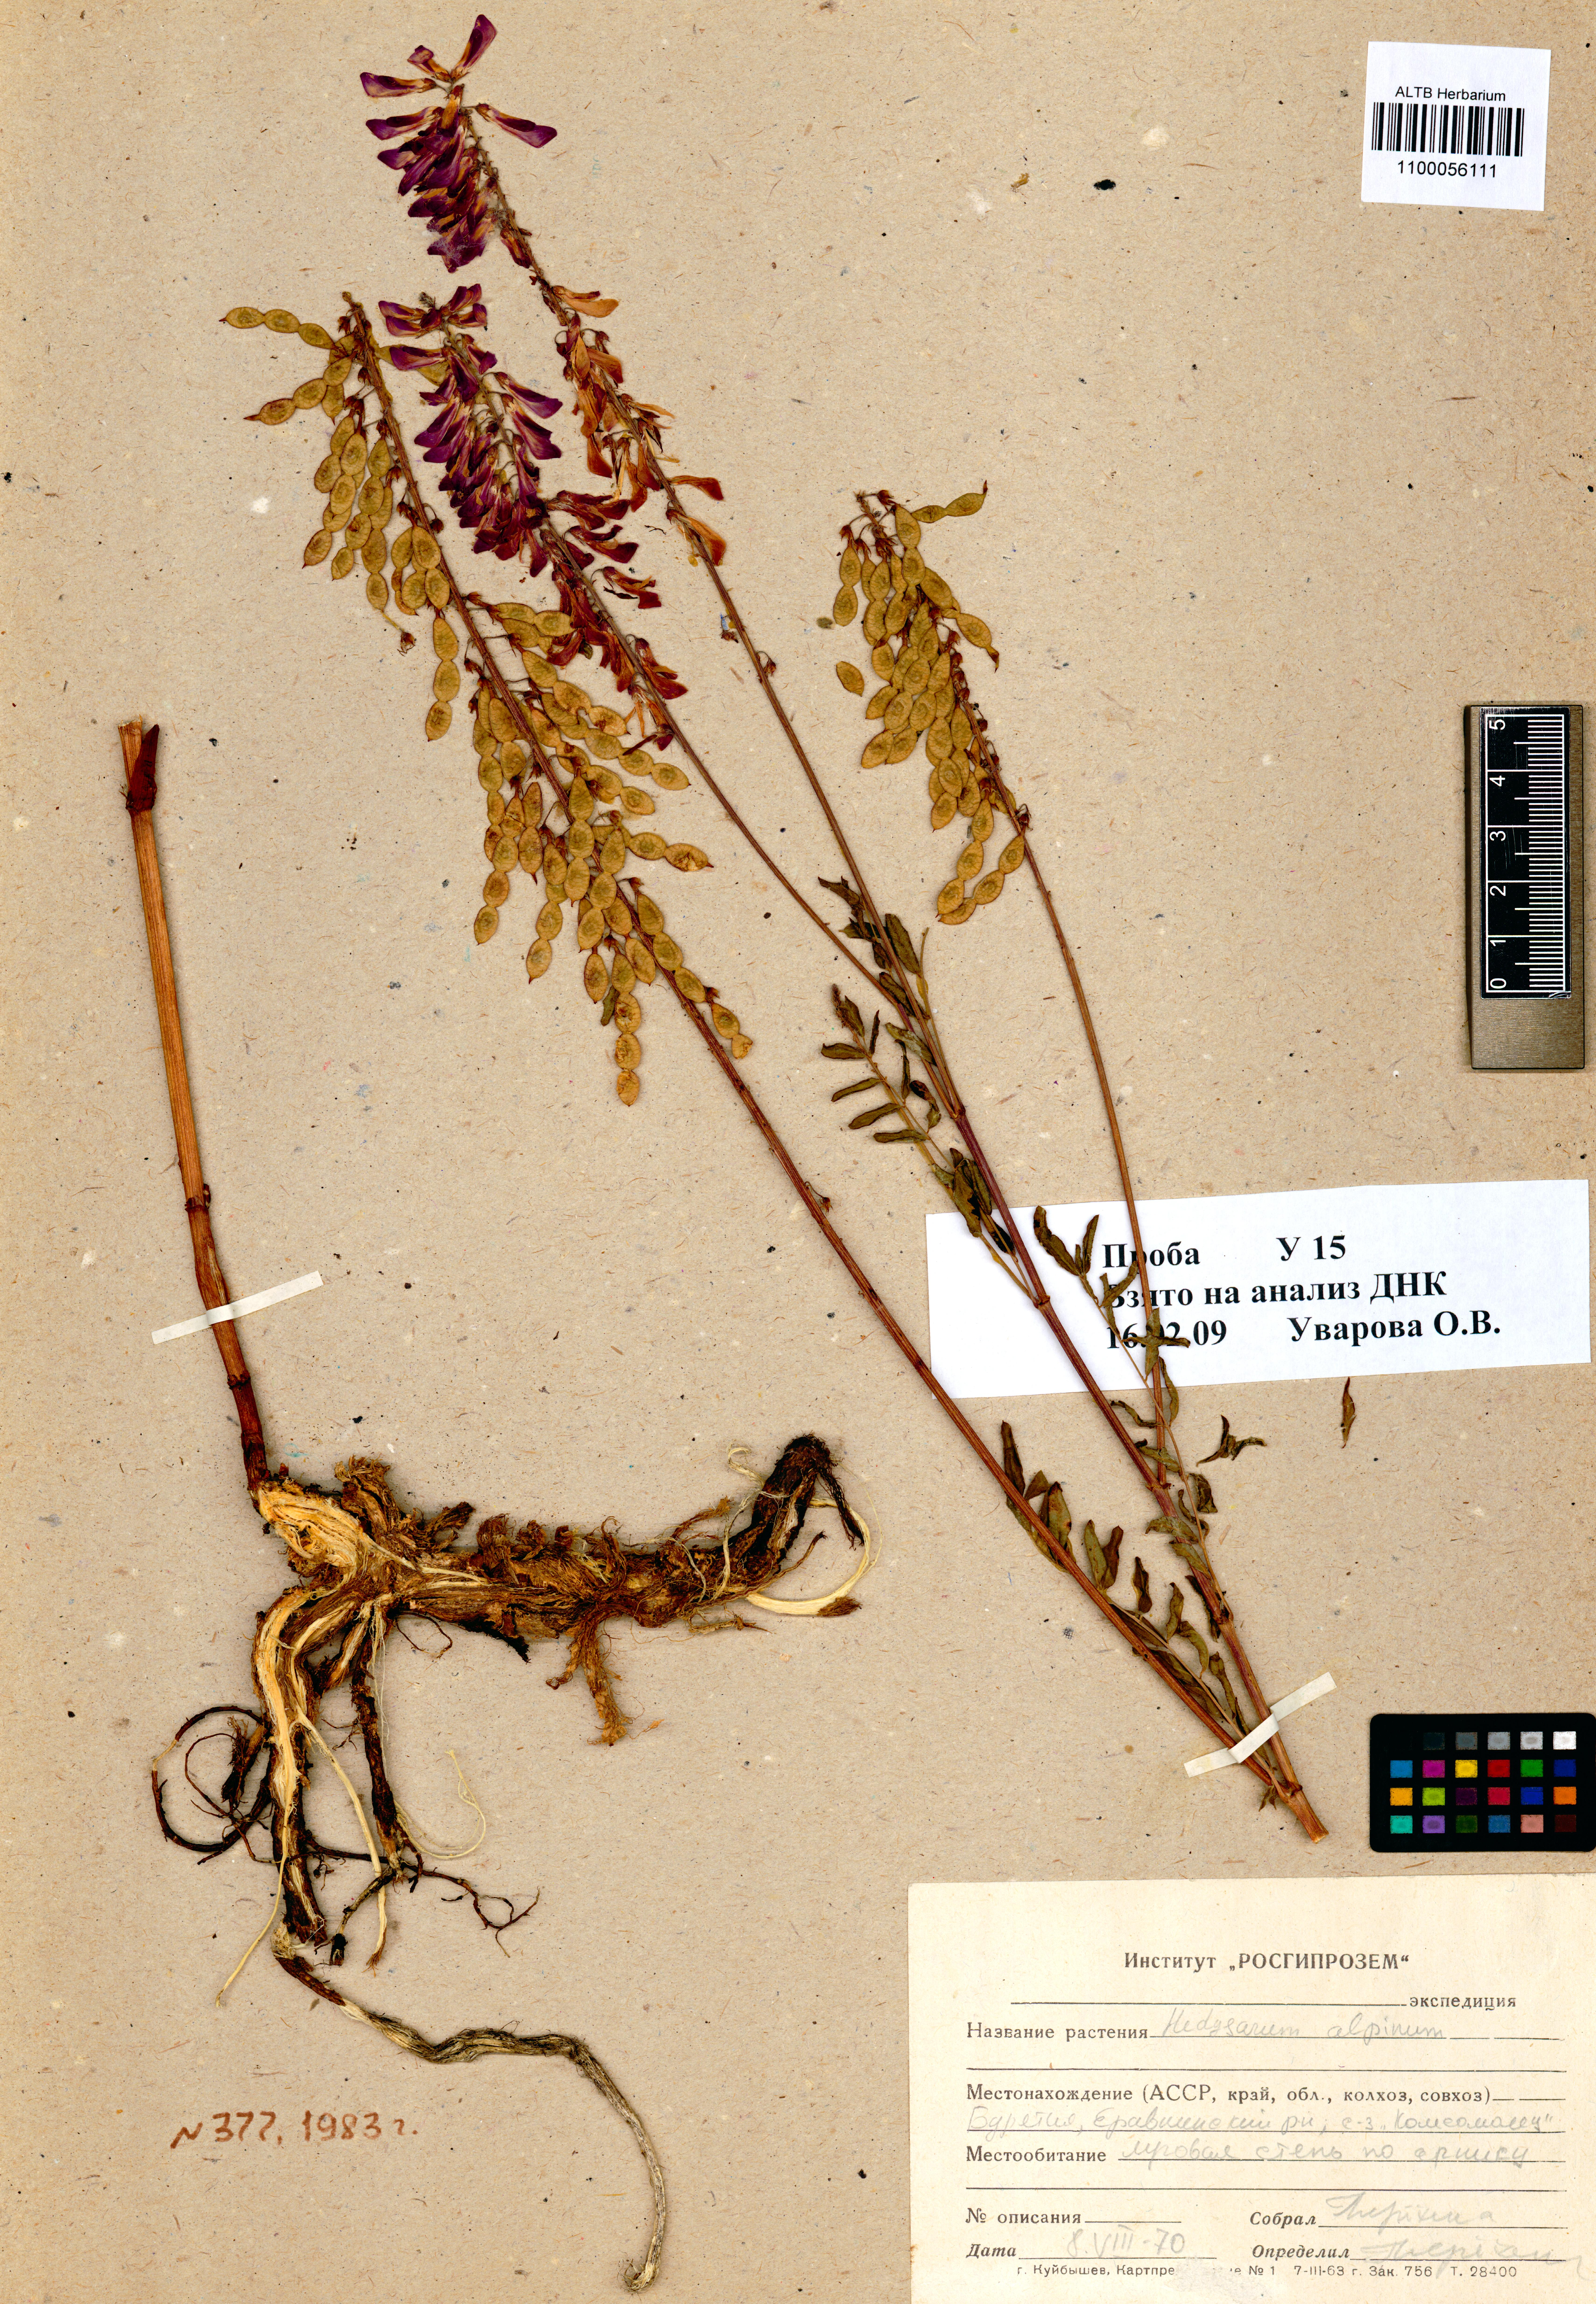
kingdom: Plantae
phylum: Tracheophyta
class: Magnoliopsida
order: Fabales
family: Fabaceae
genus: Hedysarum
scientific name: Hedysarum alpinum
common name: Alpine sweet-vetch
